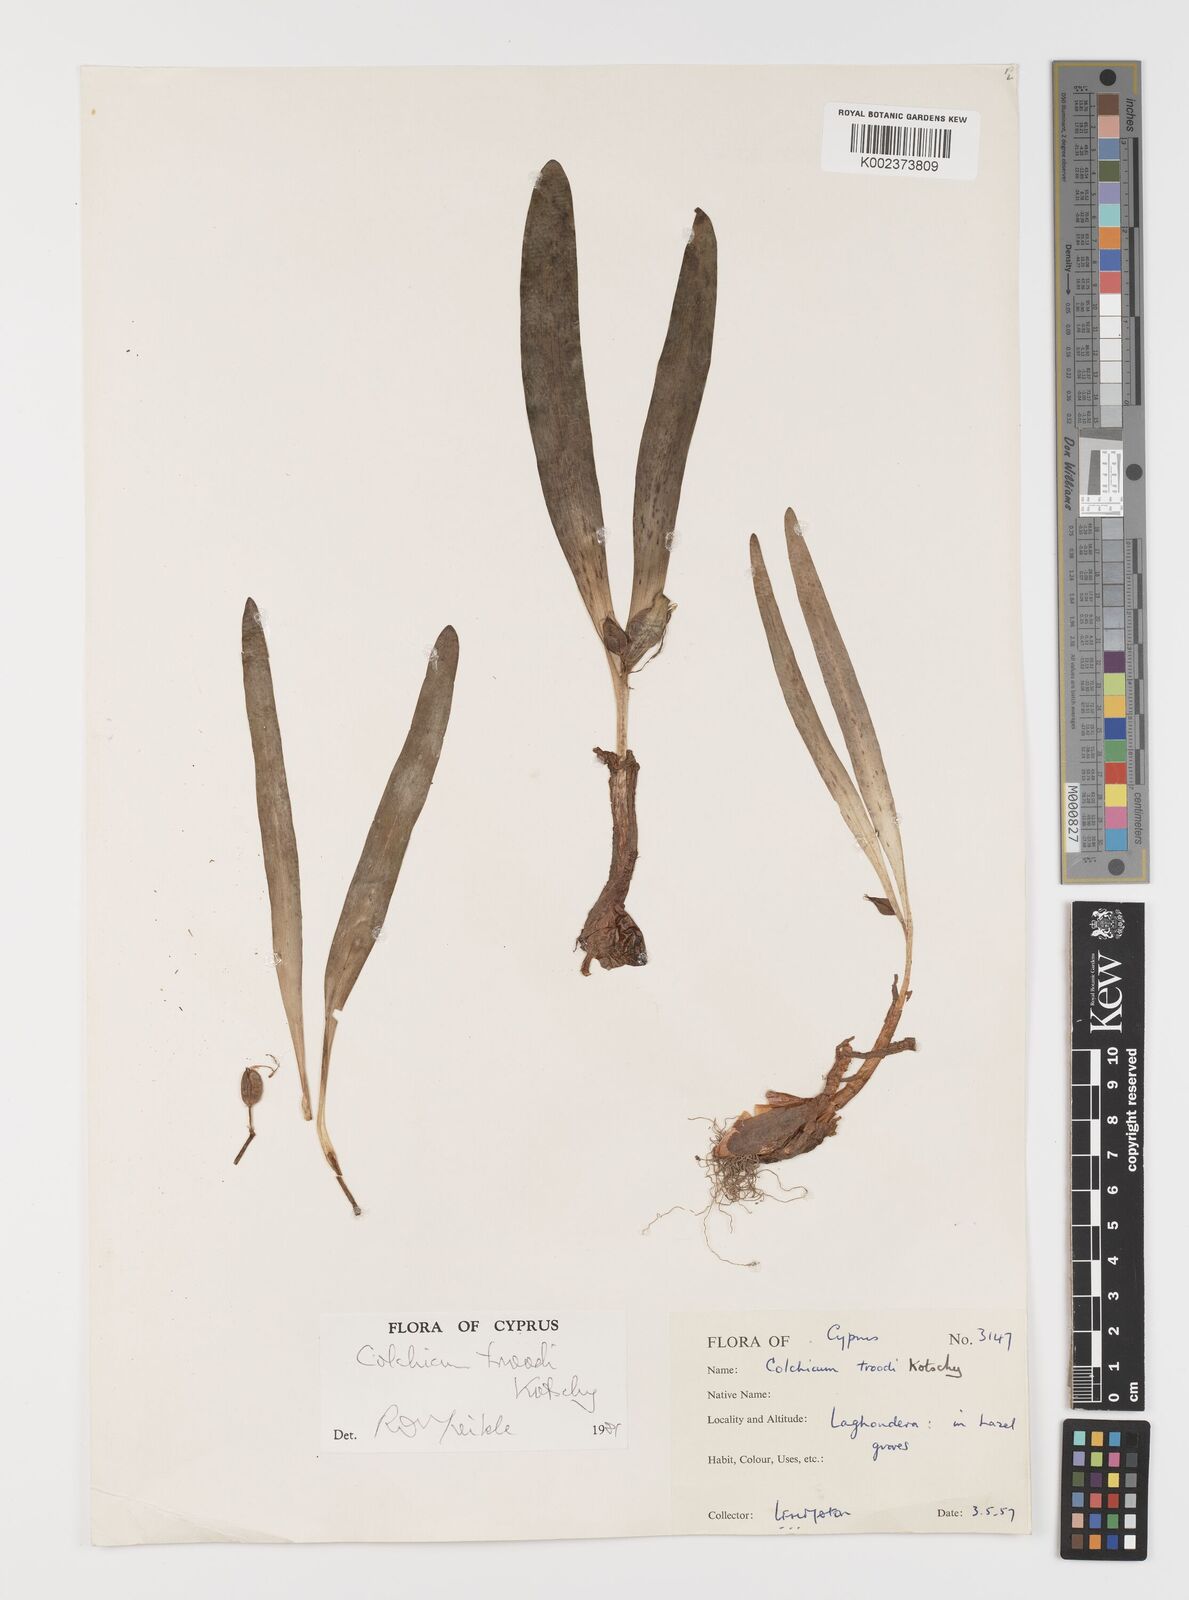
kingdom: Plantae
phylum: Tracheophyta
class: Liliopsida
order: Liliales
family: Colchicaceae
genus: Colchicum
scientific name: Colchicum troodi
